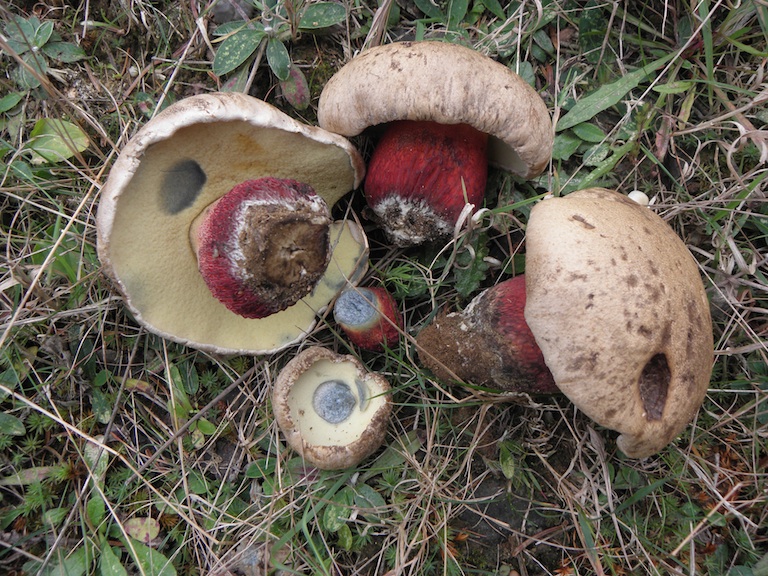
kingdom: Fungi
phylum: Basidiomycota
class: Agaricomycetes
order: Boletales
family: Boletaceae
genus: Caloboletus
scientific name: Caloboletus calopus
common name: skønfodet rørhat
